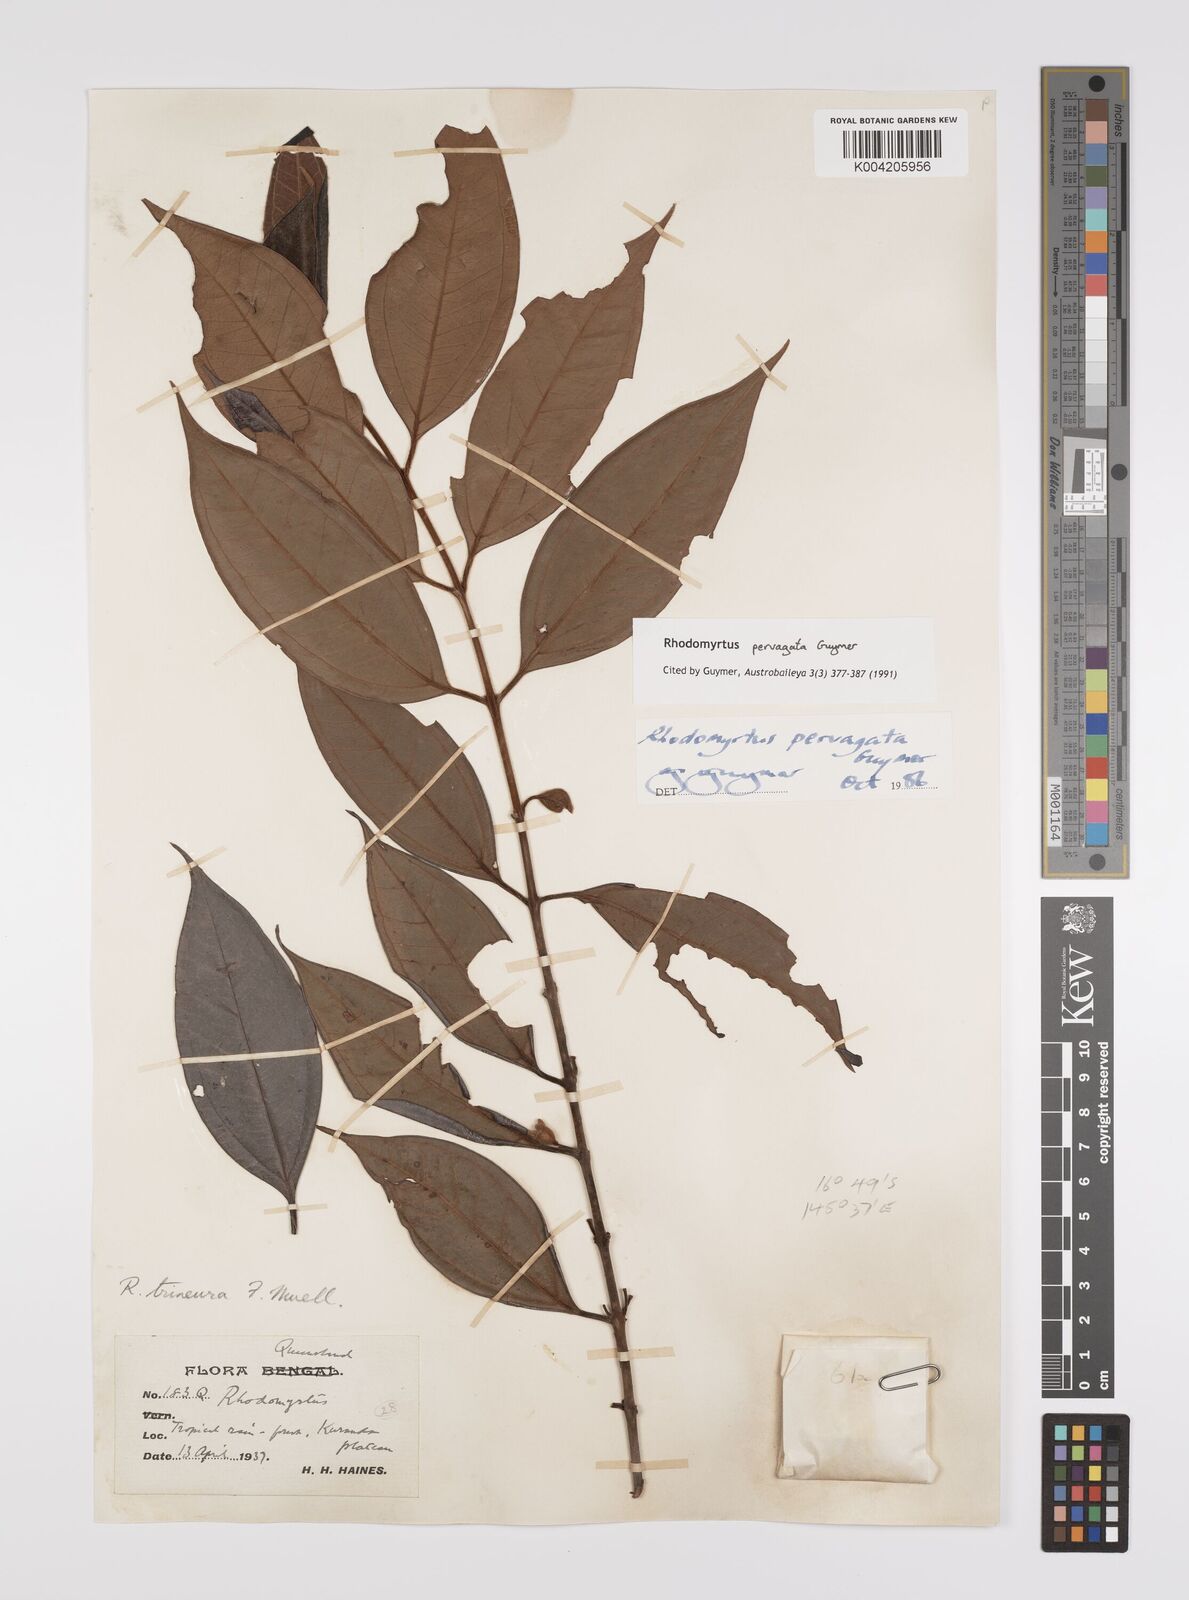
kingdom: Plantae
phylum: Tracheophyta
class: Magnoliopsida
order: Myrtales
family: Myrtaceae
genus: Rhodomyrtus
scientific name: Rhodomyrtus pervagata
